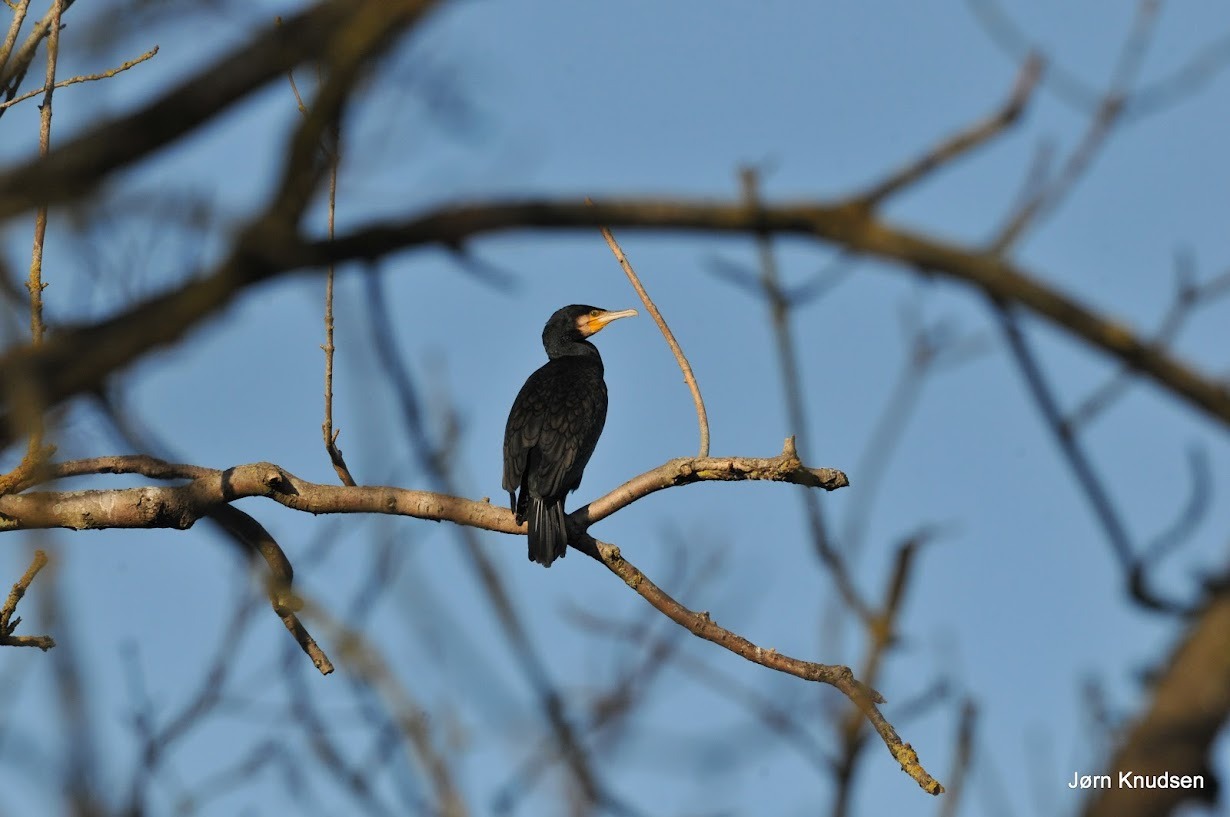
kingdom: Animalia
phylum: Chordata
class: Aves
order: Suliformes
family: Phalacrocoracidae
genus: Phalacrocorax
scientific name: Phalacrocorax carbo
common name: Skarv
